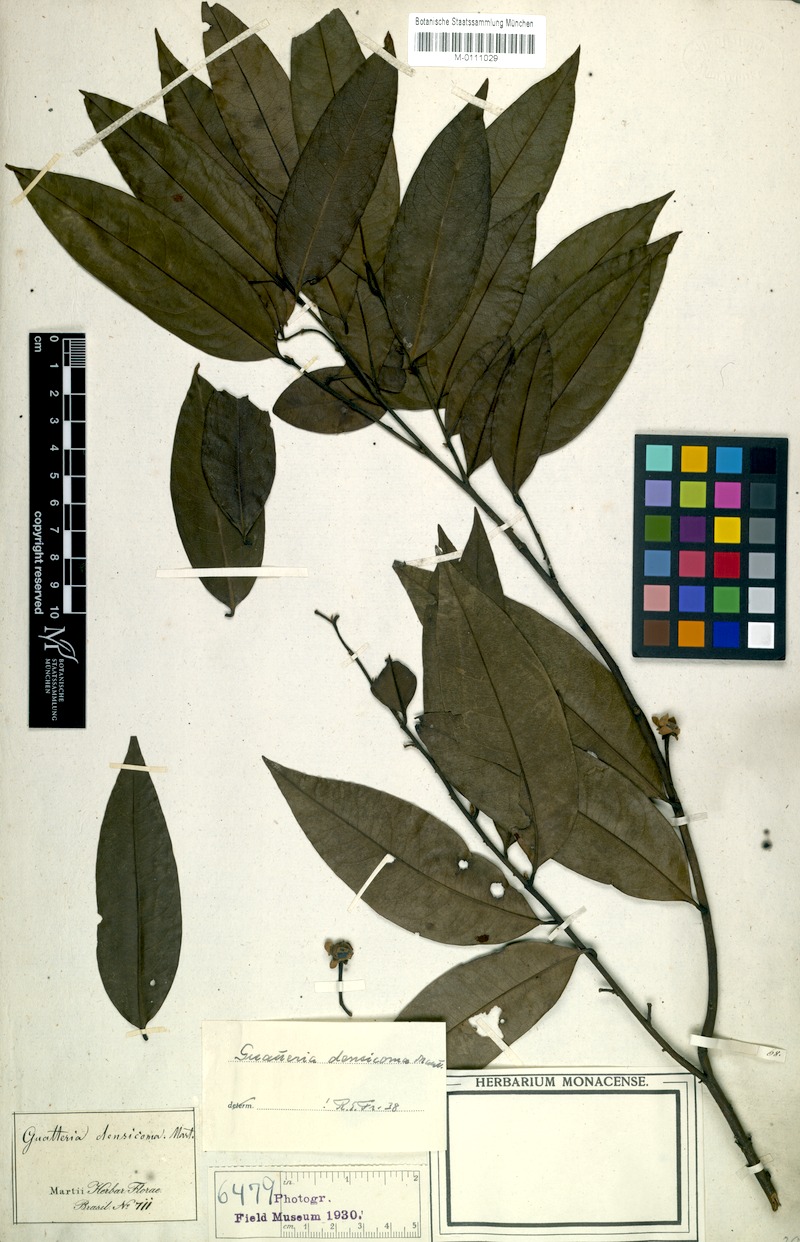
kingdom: Plantae
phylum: Tracheophyta
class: Magnoliopsida
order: Magnoliales
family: Annonaceae
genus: Guatteria
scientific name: Guatteria australis
